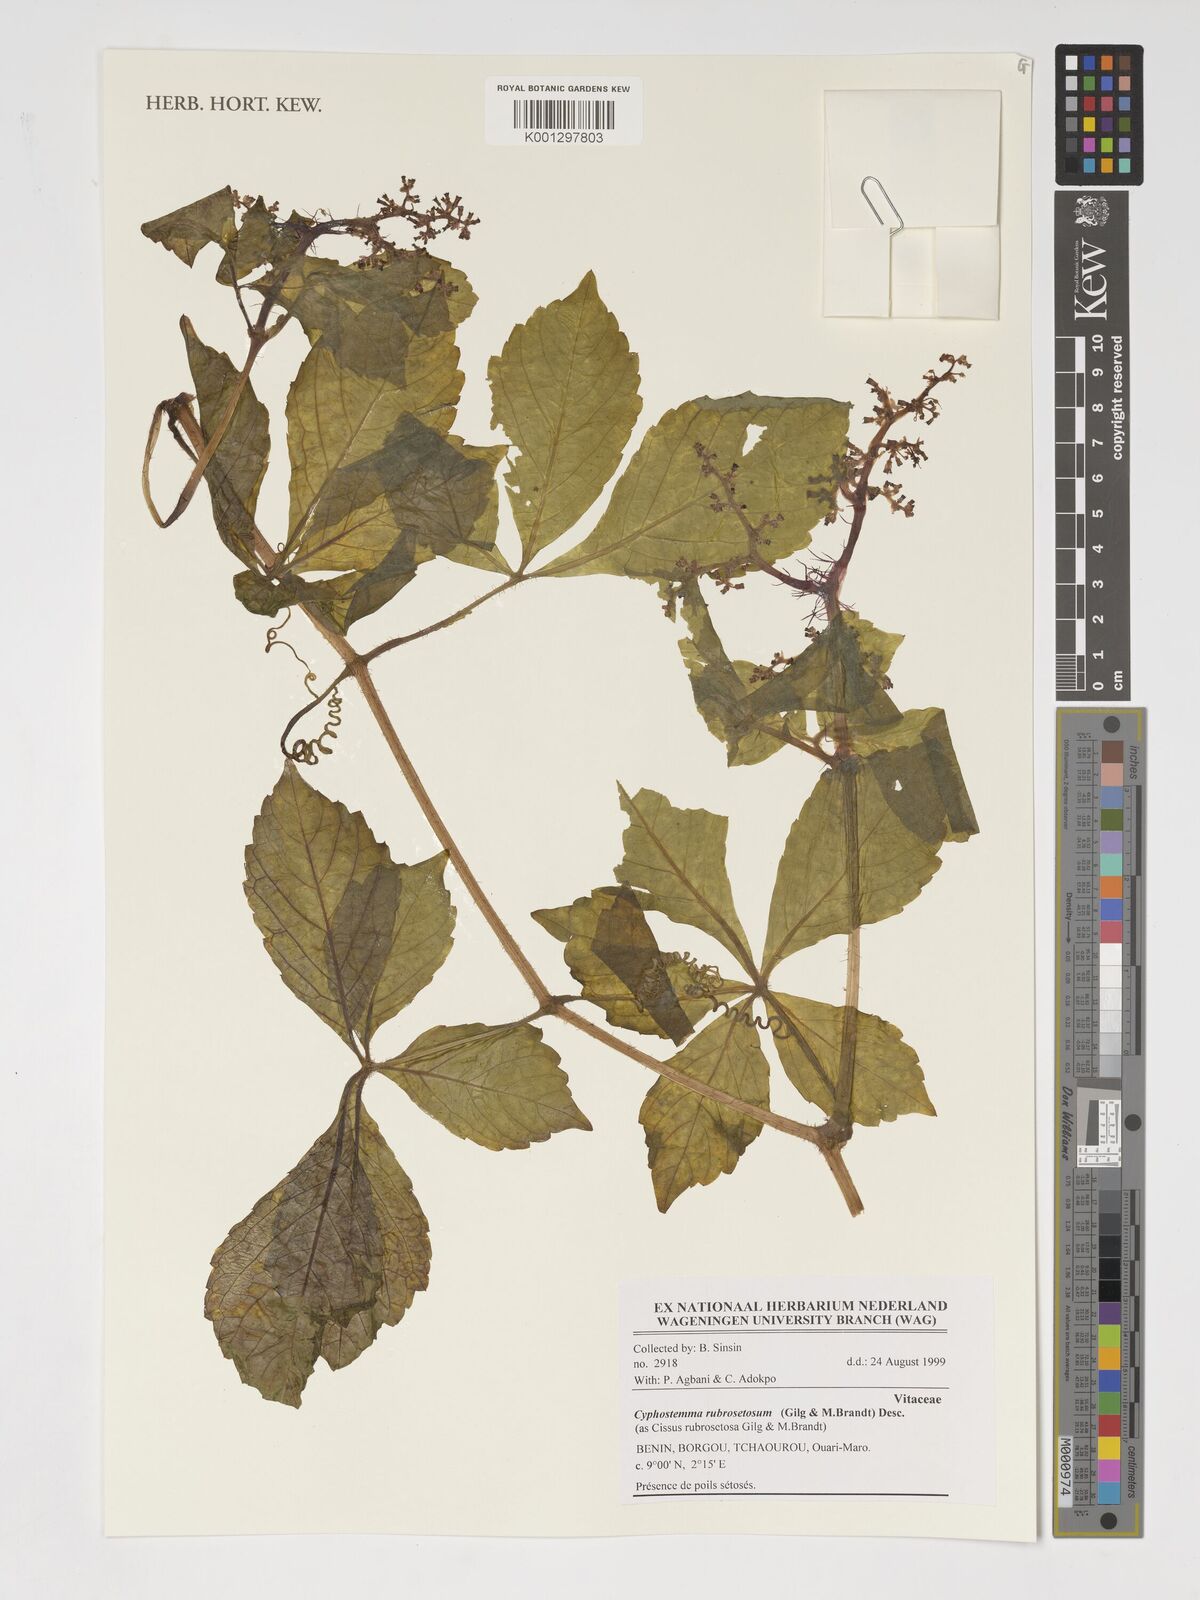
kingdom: Plantae
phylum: Tracheophyta
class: Magnoliopsida
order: Vitales
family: Vitaceae
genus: Cyphostemma
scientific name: Cyphostemma rubrosetosum
